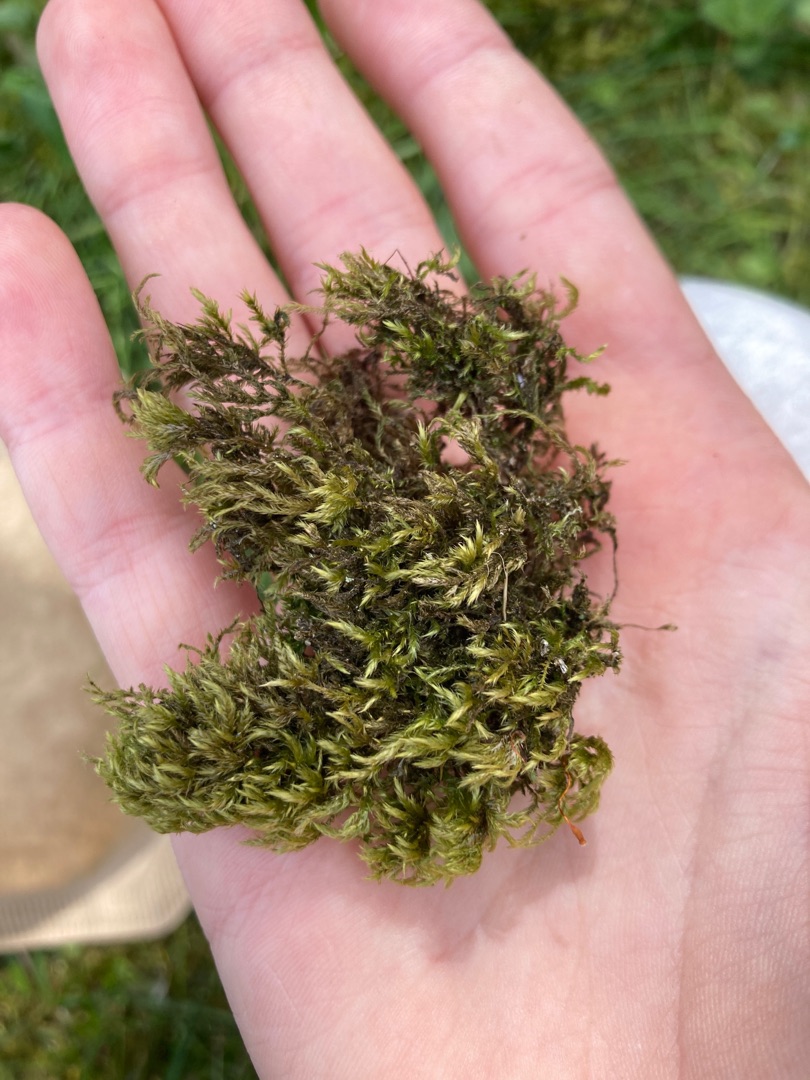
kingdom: Plantae
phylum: Bryophyta
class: Bryopsida
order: Hypnales
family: Lembophyllaceae
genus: Pseudisothecium
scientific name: Pseudisothecium myosuroides
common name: Slank stammemos
